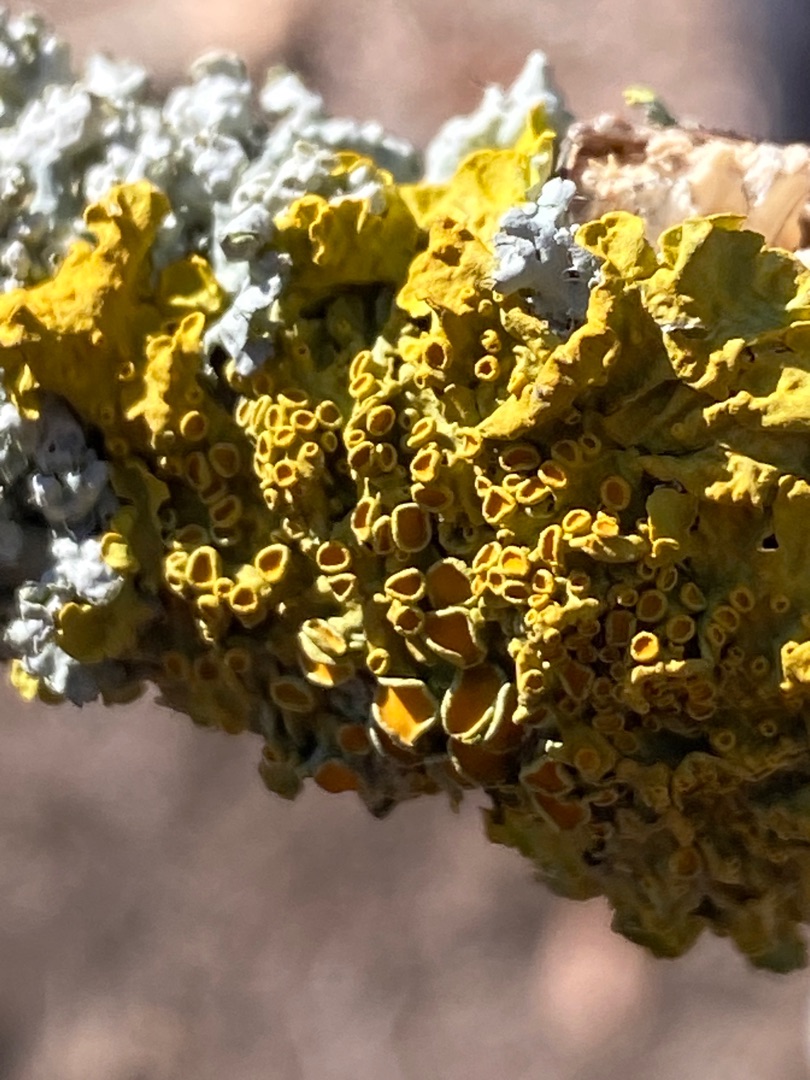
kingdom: Fungi
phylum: Ascomycota
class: Lecanoromycetes
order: Teloschistales
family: Teloschistaceae
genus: Xanthoria
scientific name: Xanthoria parietina
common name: Almindelig væggelav
